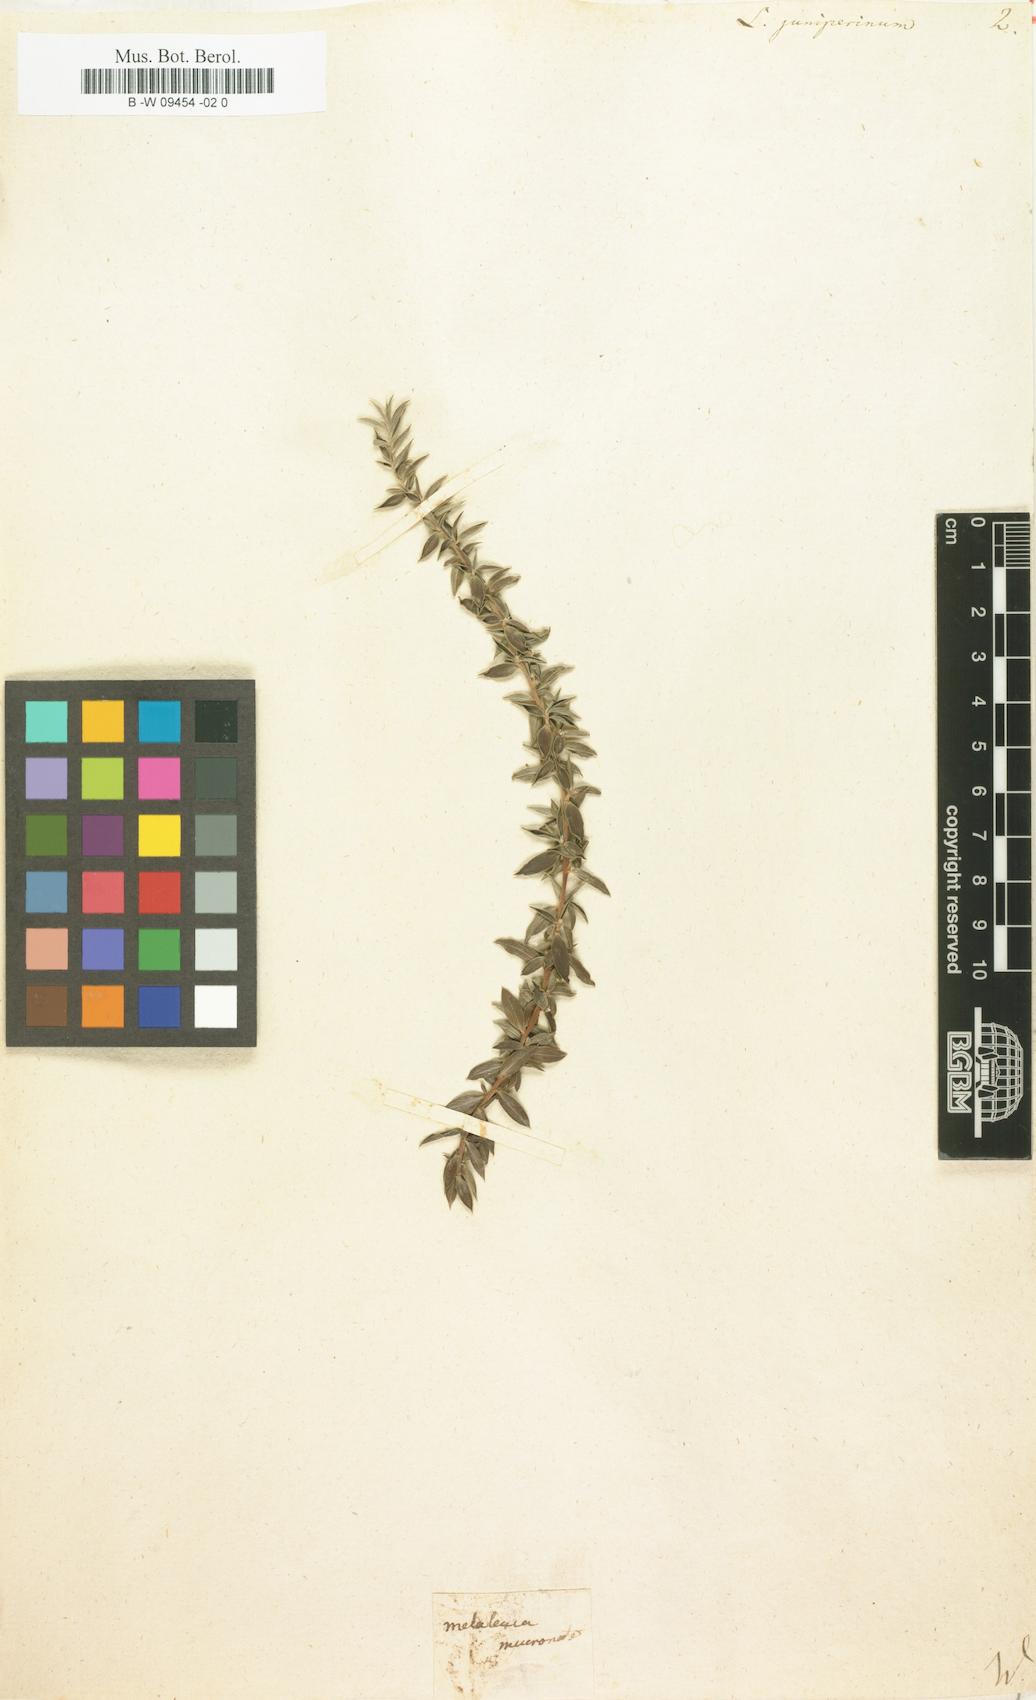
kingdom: Plantae
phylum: Tracheophyta
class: Magnoliopsida
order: Myrtales
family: Myrtaceae
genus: Leptospermum
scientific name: Leptospermum juniperinum
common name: Prickly teatree
